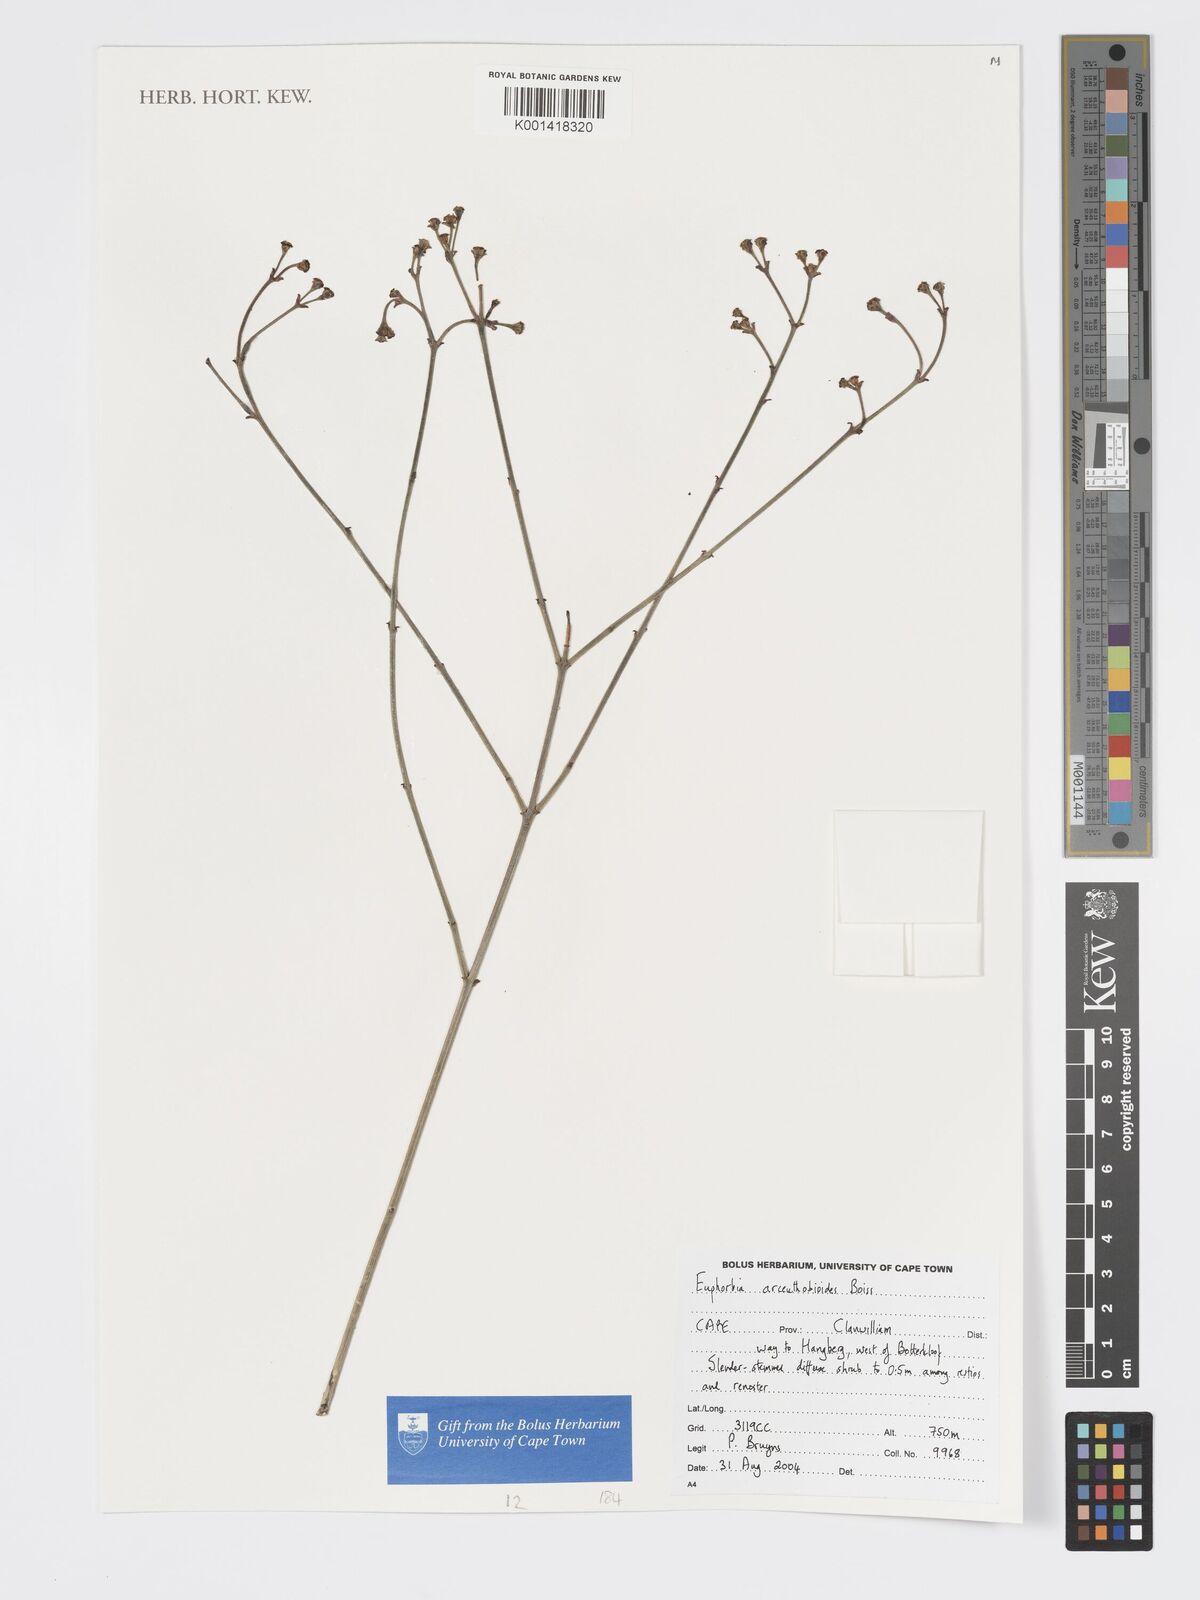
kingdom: Plantae
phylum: Tracheophyta
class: Magnoliopsida
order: Malpighiales
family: Euphorbiaceae
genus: Euphorbia
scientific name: Euphorbia arceuthobioides
